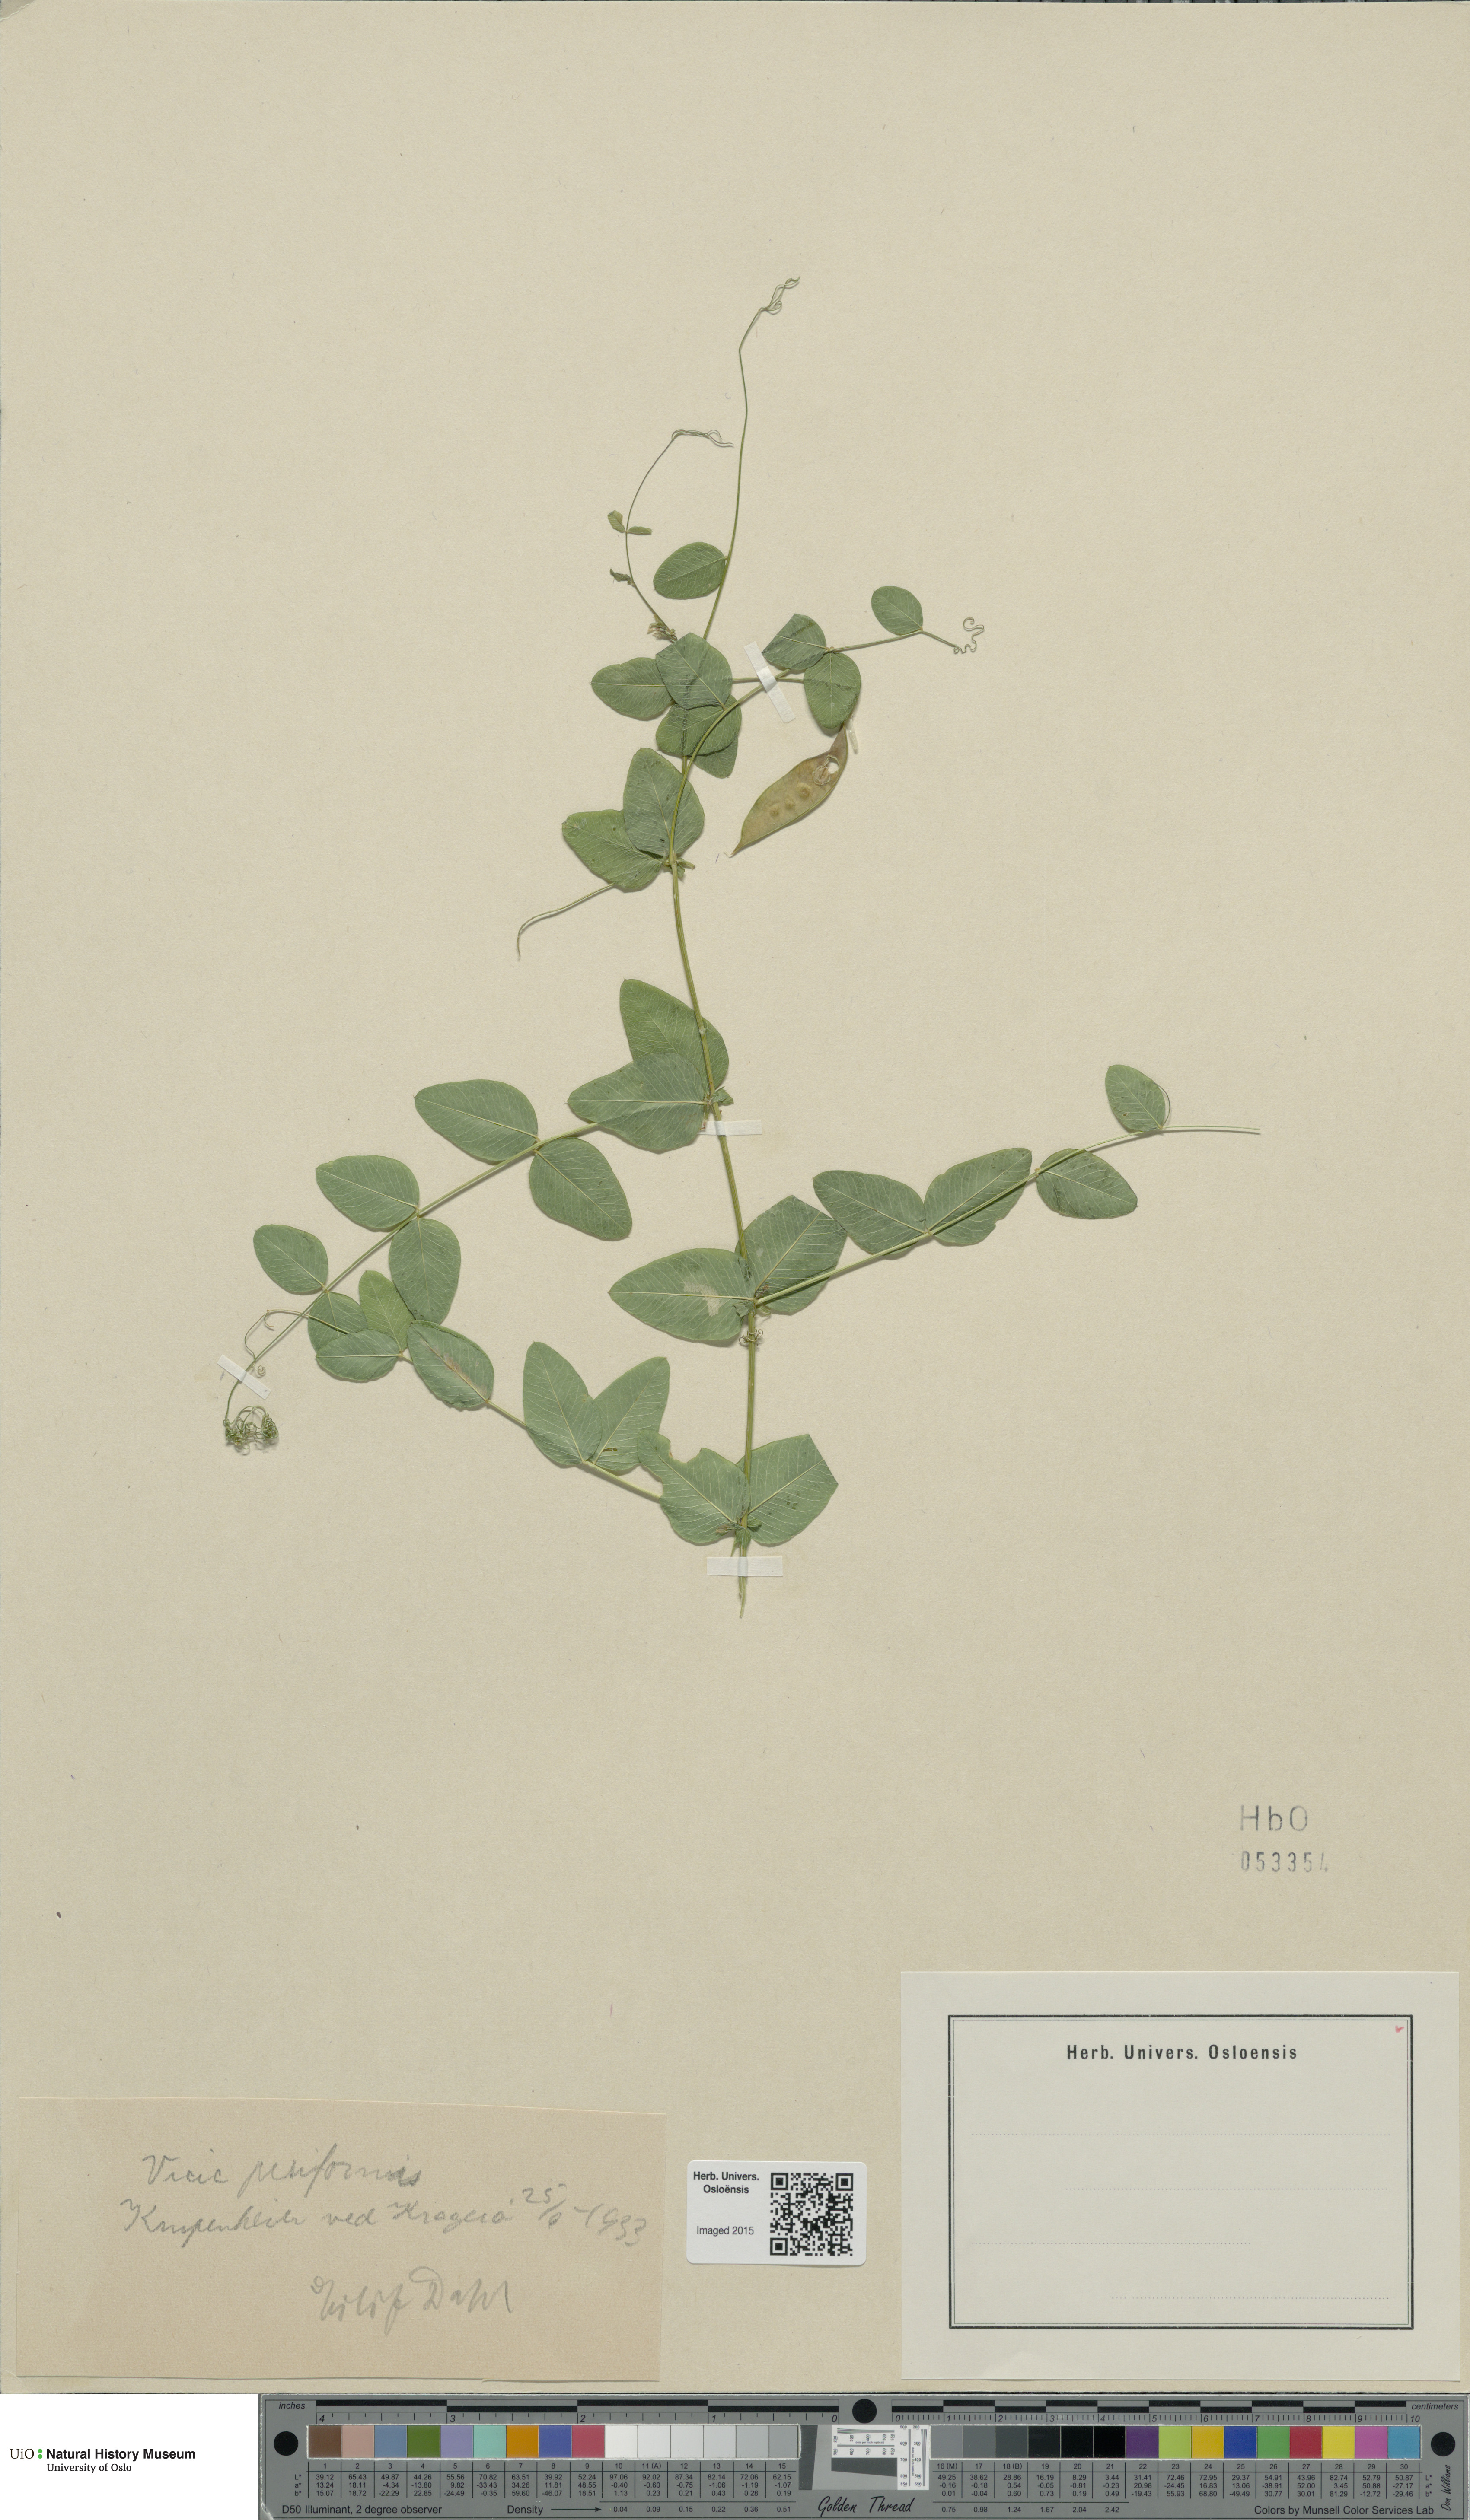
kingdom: Plantae
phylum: Tracheophyta
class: Magnoliopsida
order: Fabales
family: Fabaceae
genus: Vicia
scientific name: Vicia pisiformis
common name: Pale-flower vetch
